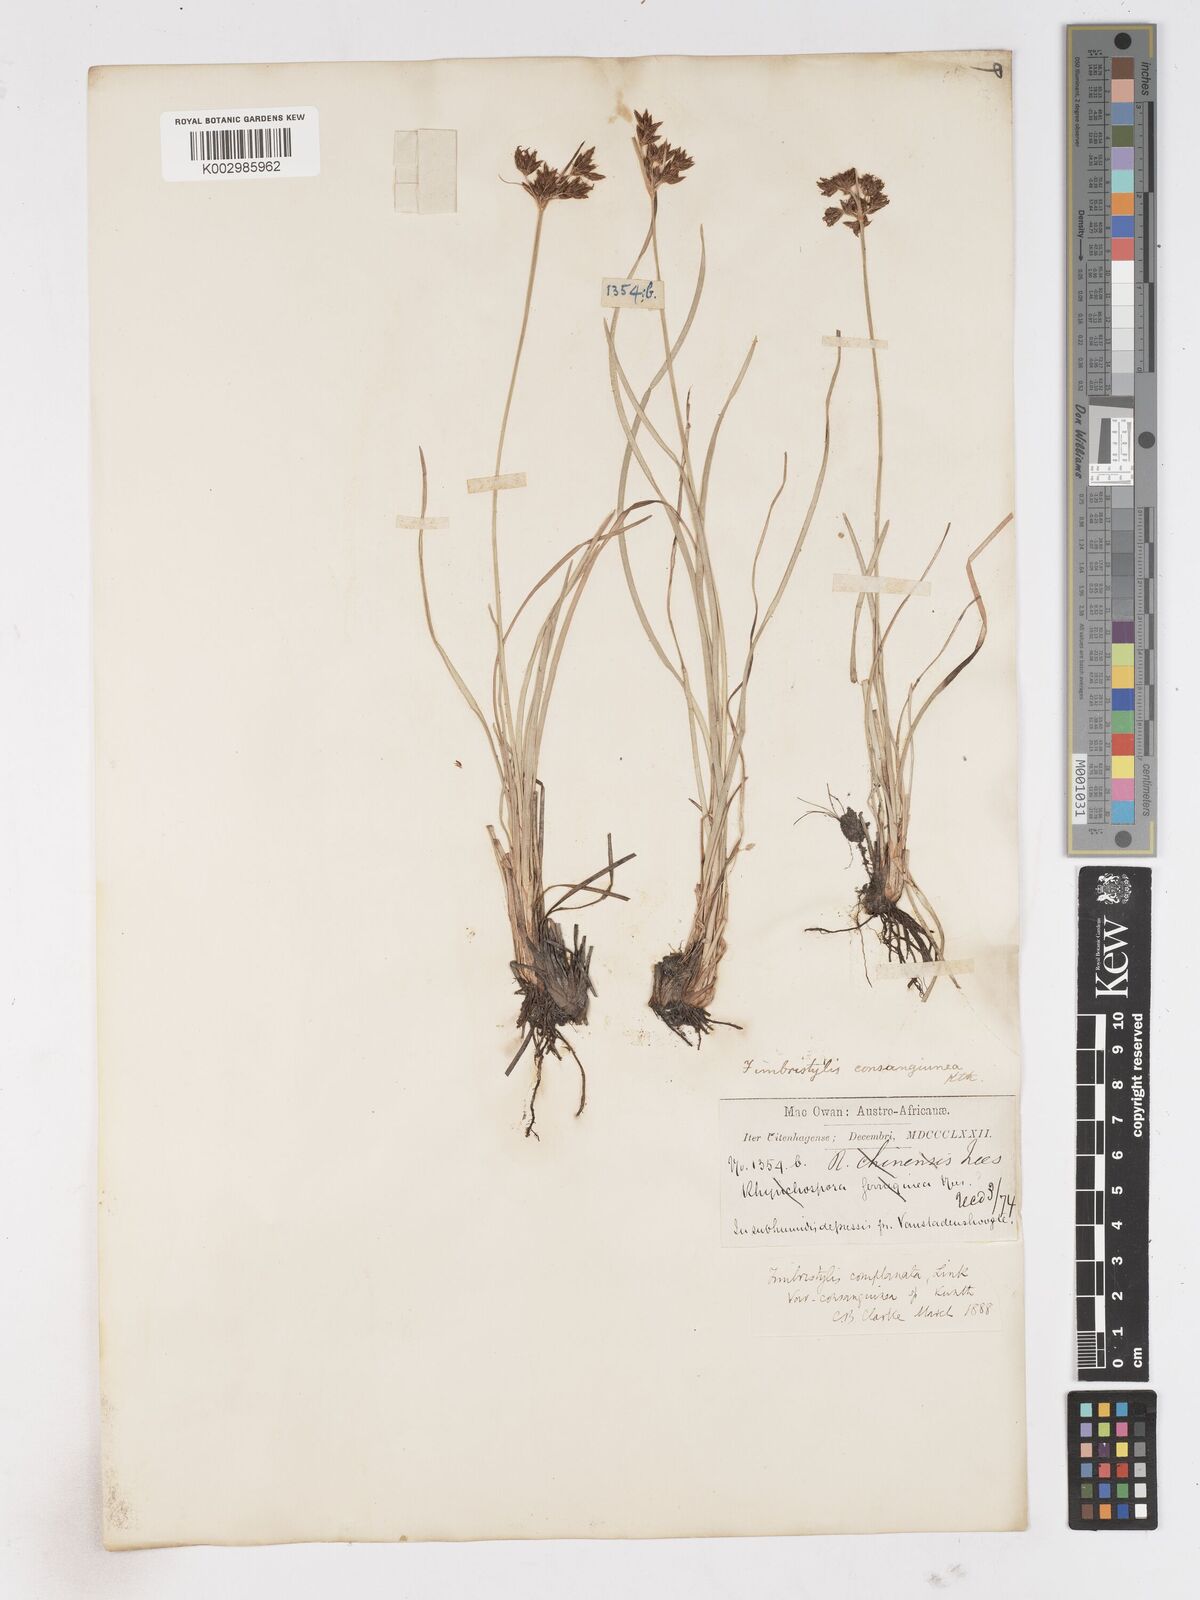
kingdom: Plantae
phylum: Tracheophyta
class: Liliopsida
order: Poales
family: Cyperaceae
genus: Fimbristylis
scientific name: Fimbristylis complanata
